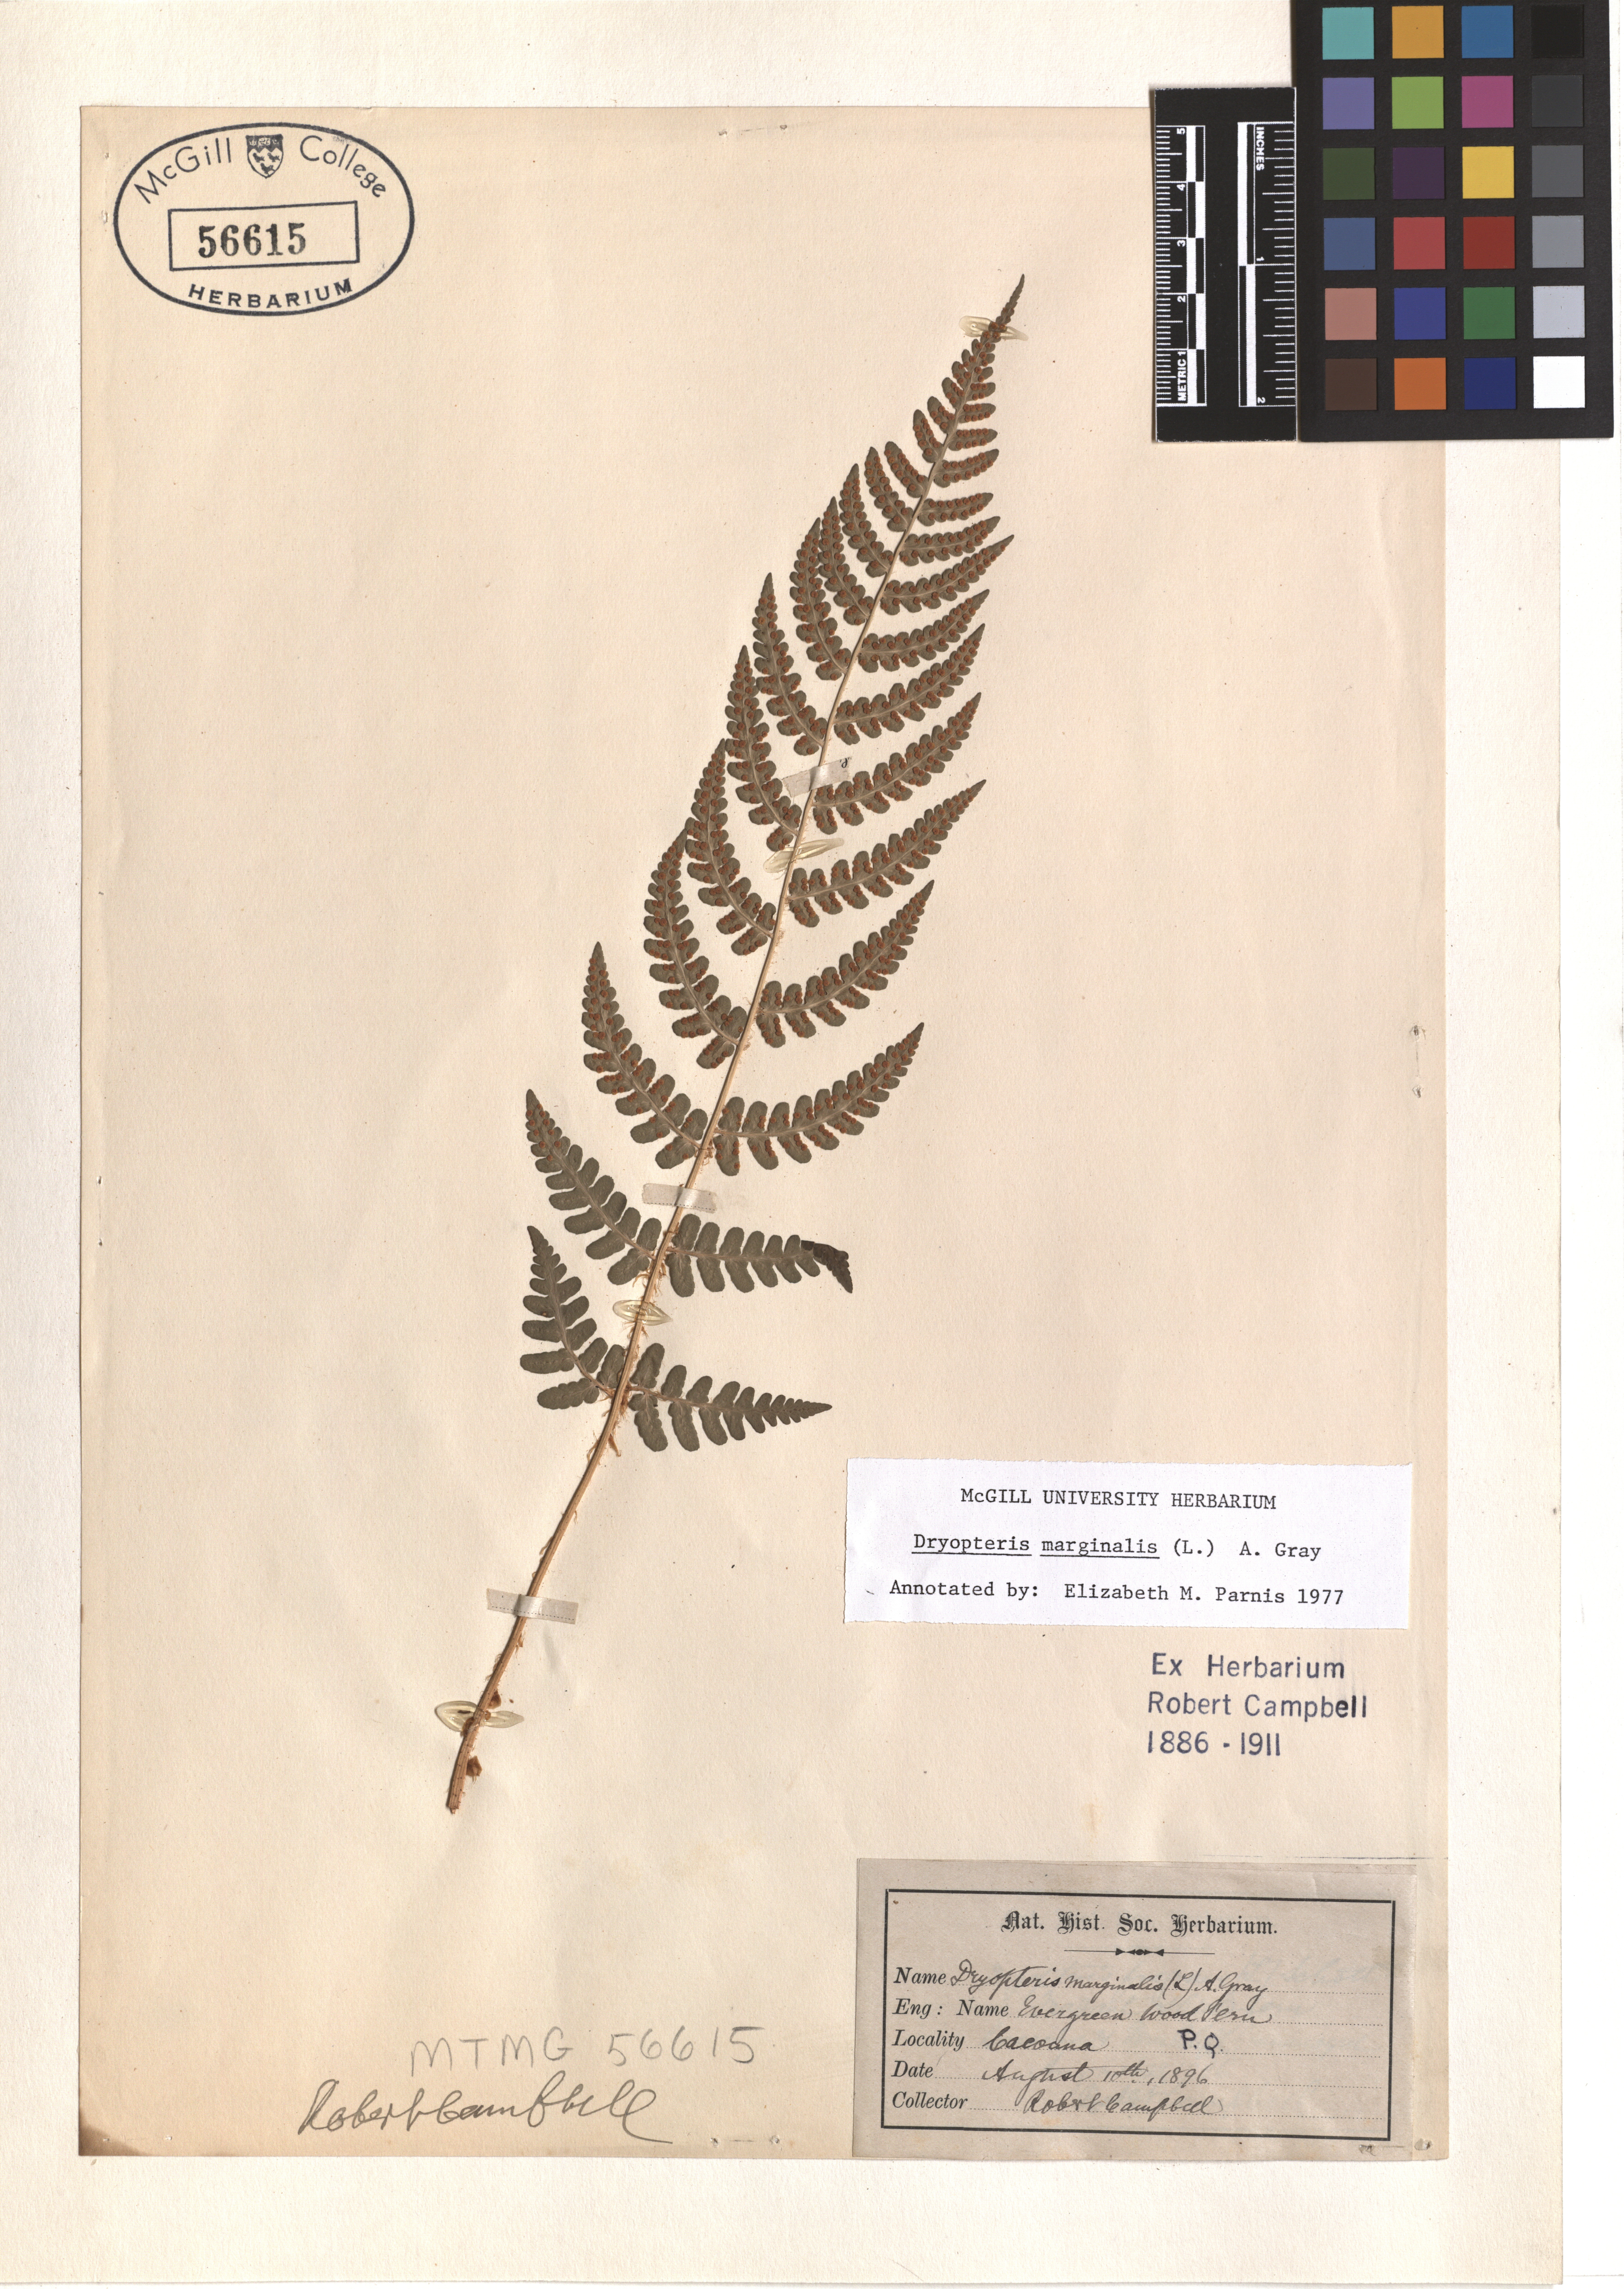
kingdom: Plantae
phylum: Tracheophyta
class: Polypodiopsida
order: Polypodiales
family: Dryopteridaceae
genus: Dryopteris
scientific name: Dryopteris marginalis
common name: Marginal wood fern
